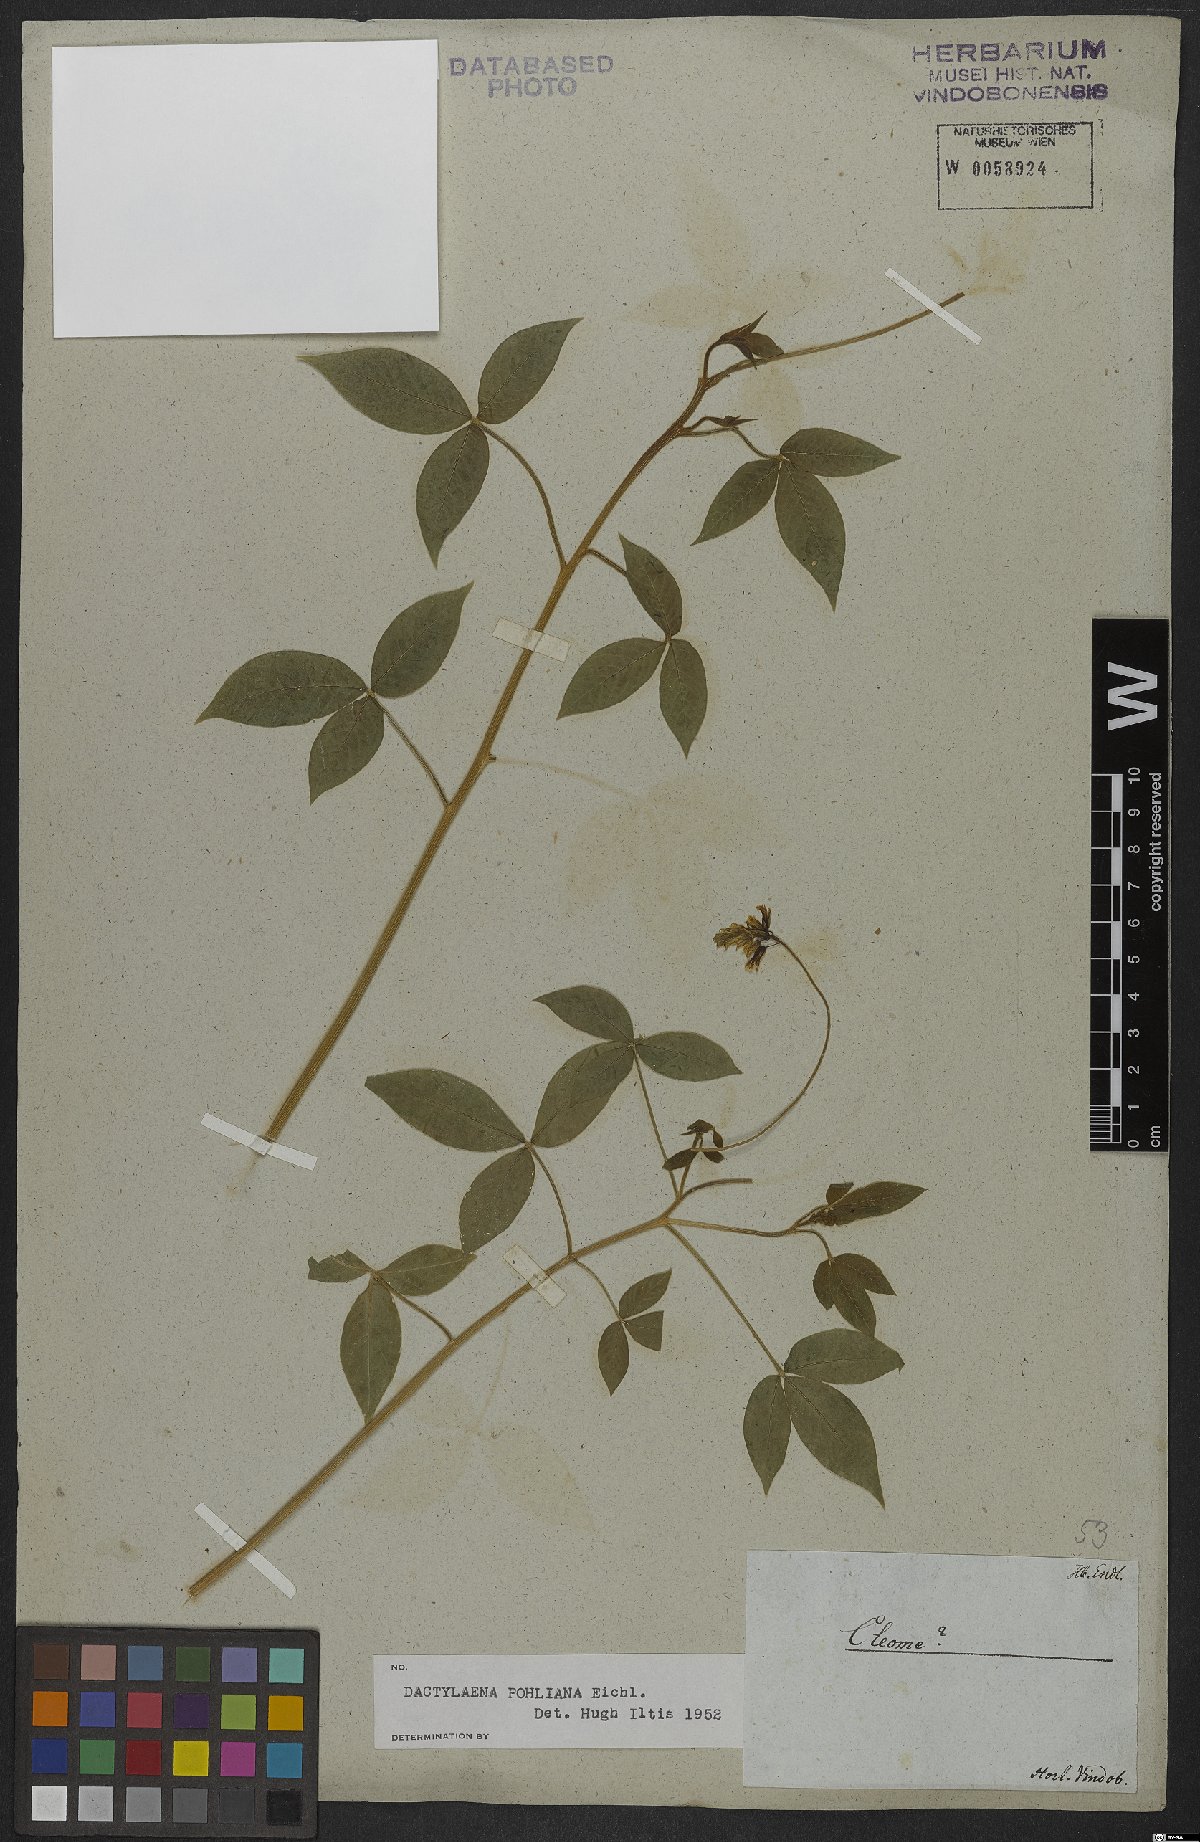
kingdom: Plantae
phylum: Tracheophyta
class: Magnoliopsida
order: Brassicales
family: Cleomaceae
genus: Dactylaena
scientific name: Dactylaena pohliana
